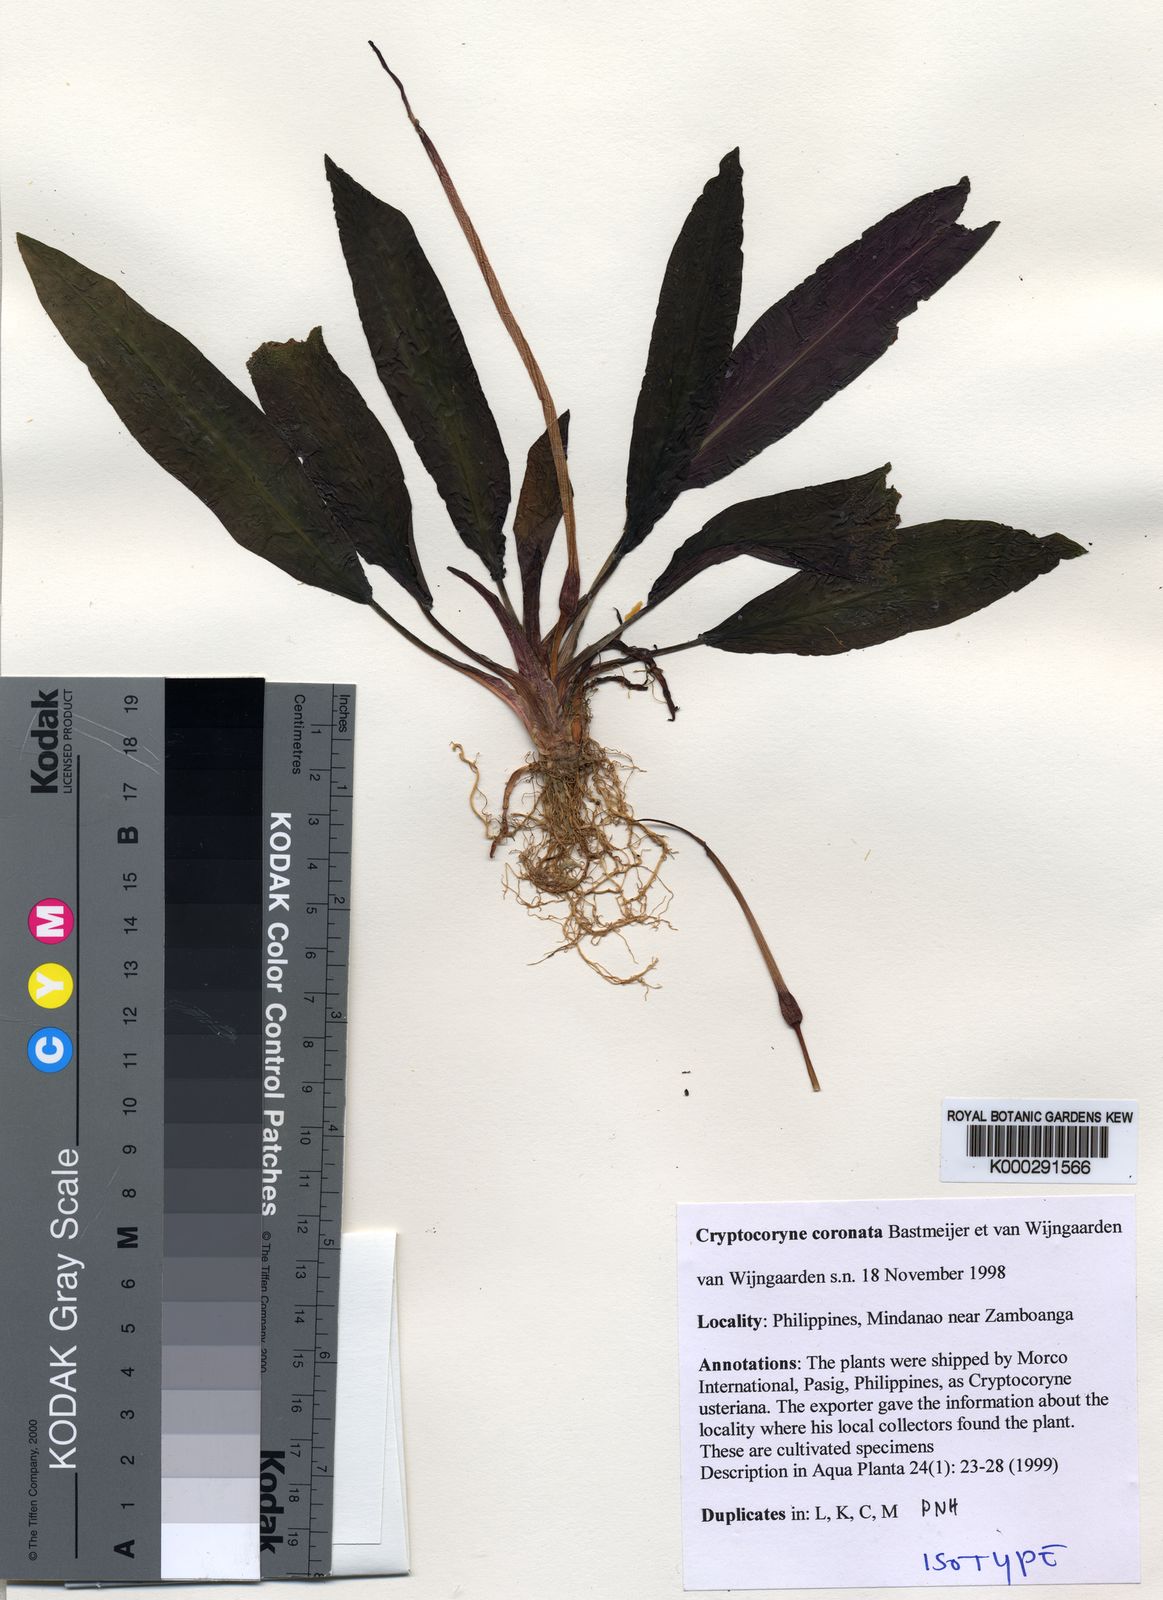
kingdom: Plantae
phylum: Tracheophyta
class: Liliopsida
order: Alismatales
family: Araceae
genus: Cryptocoryne
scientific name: Cryptocoryne coronata
